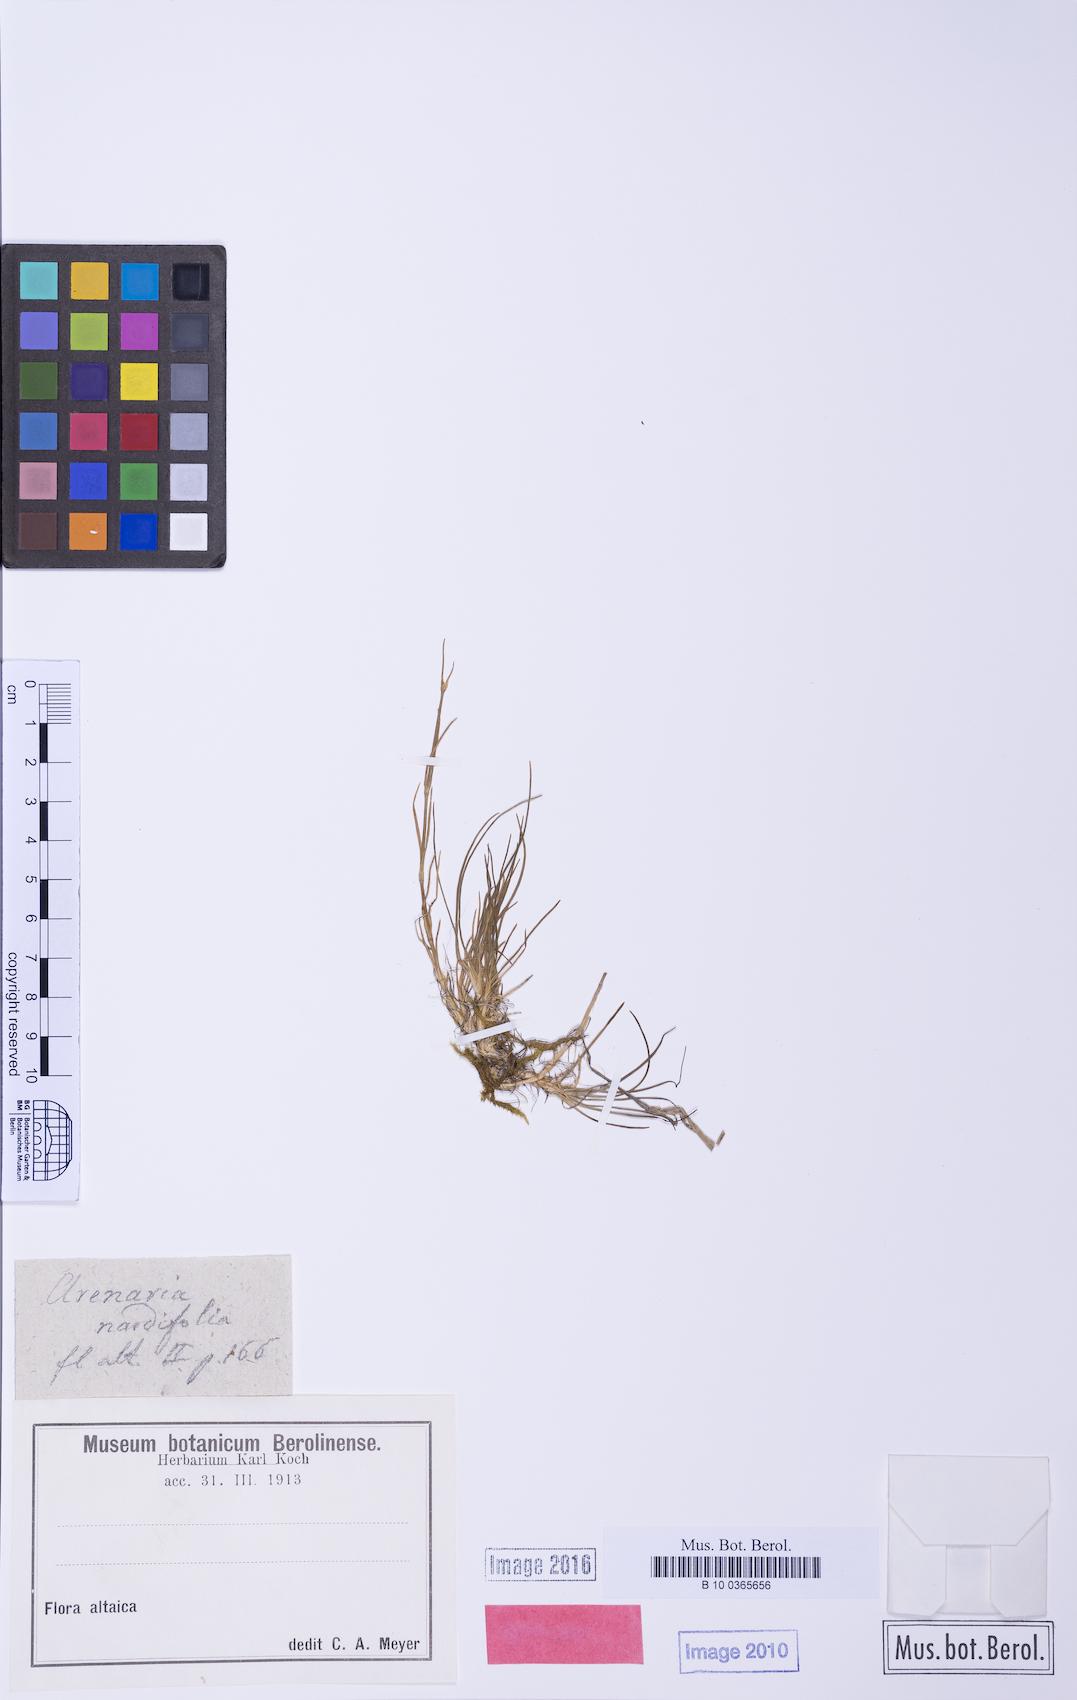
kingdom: Plantae
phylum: Tracheophyta
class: Magnoliopsida
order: Caryophyllales
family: Caryophyllaceae
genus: Eremogone
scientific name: Eremogone capillaris
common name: Slender mountain sandwort
